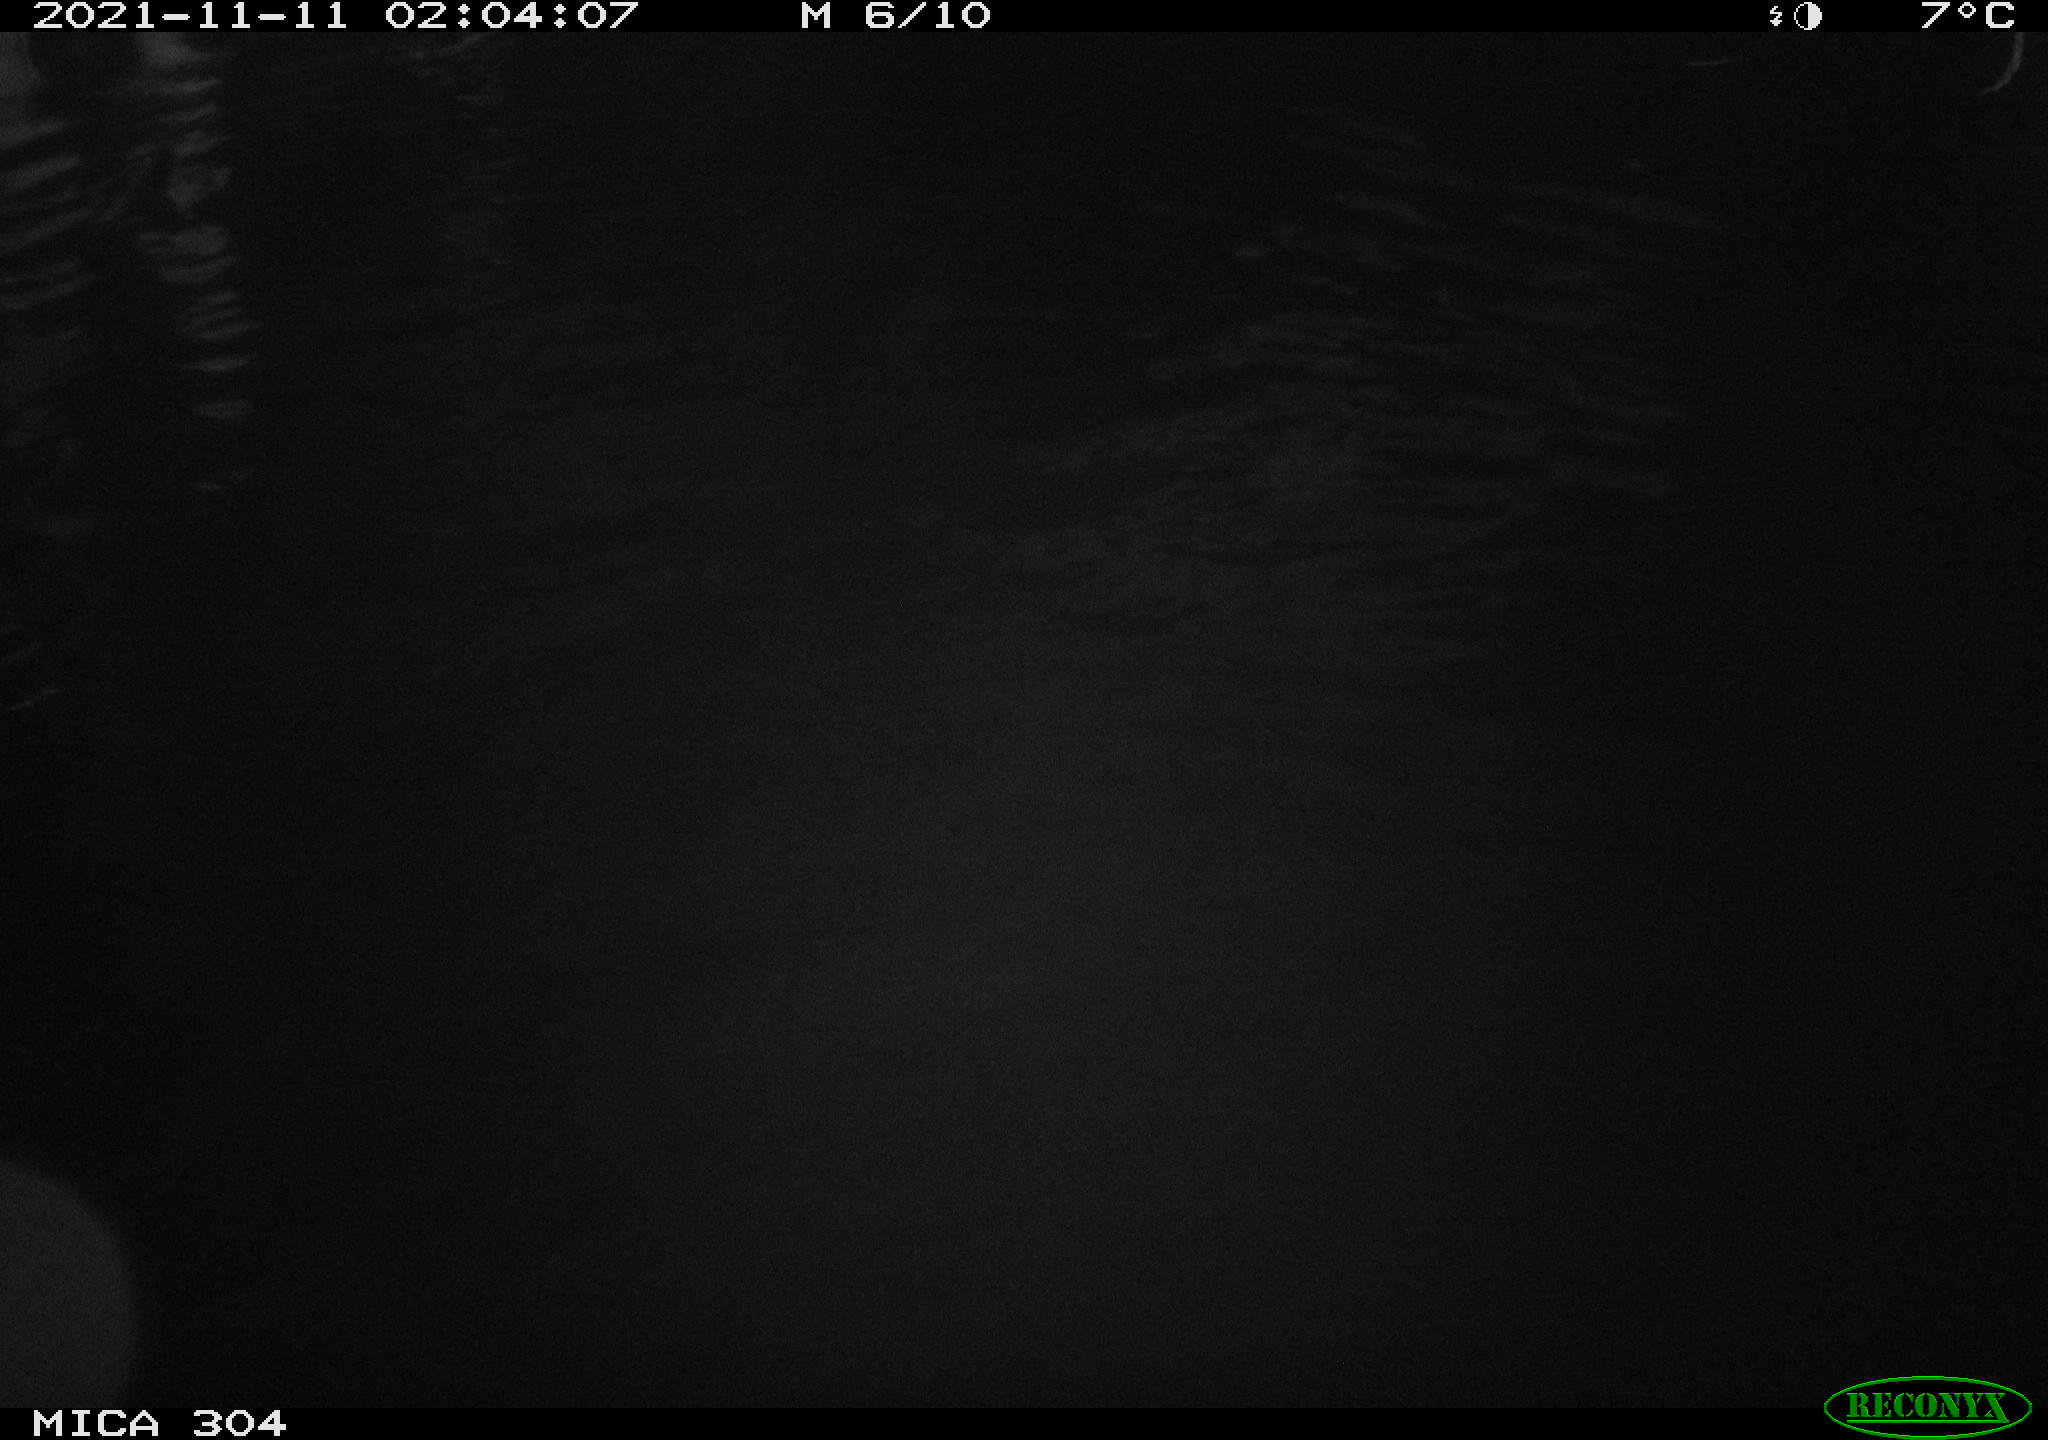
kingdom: Animalia
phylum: Chordata
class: Mammalia
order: Rodentia
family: Cricetidae
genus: Ondatra
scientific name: Ondatra zibethicus
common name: Muskrat
